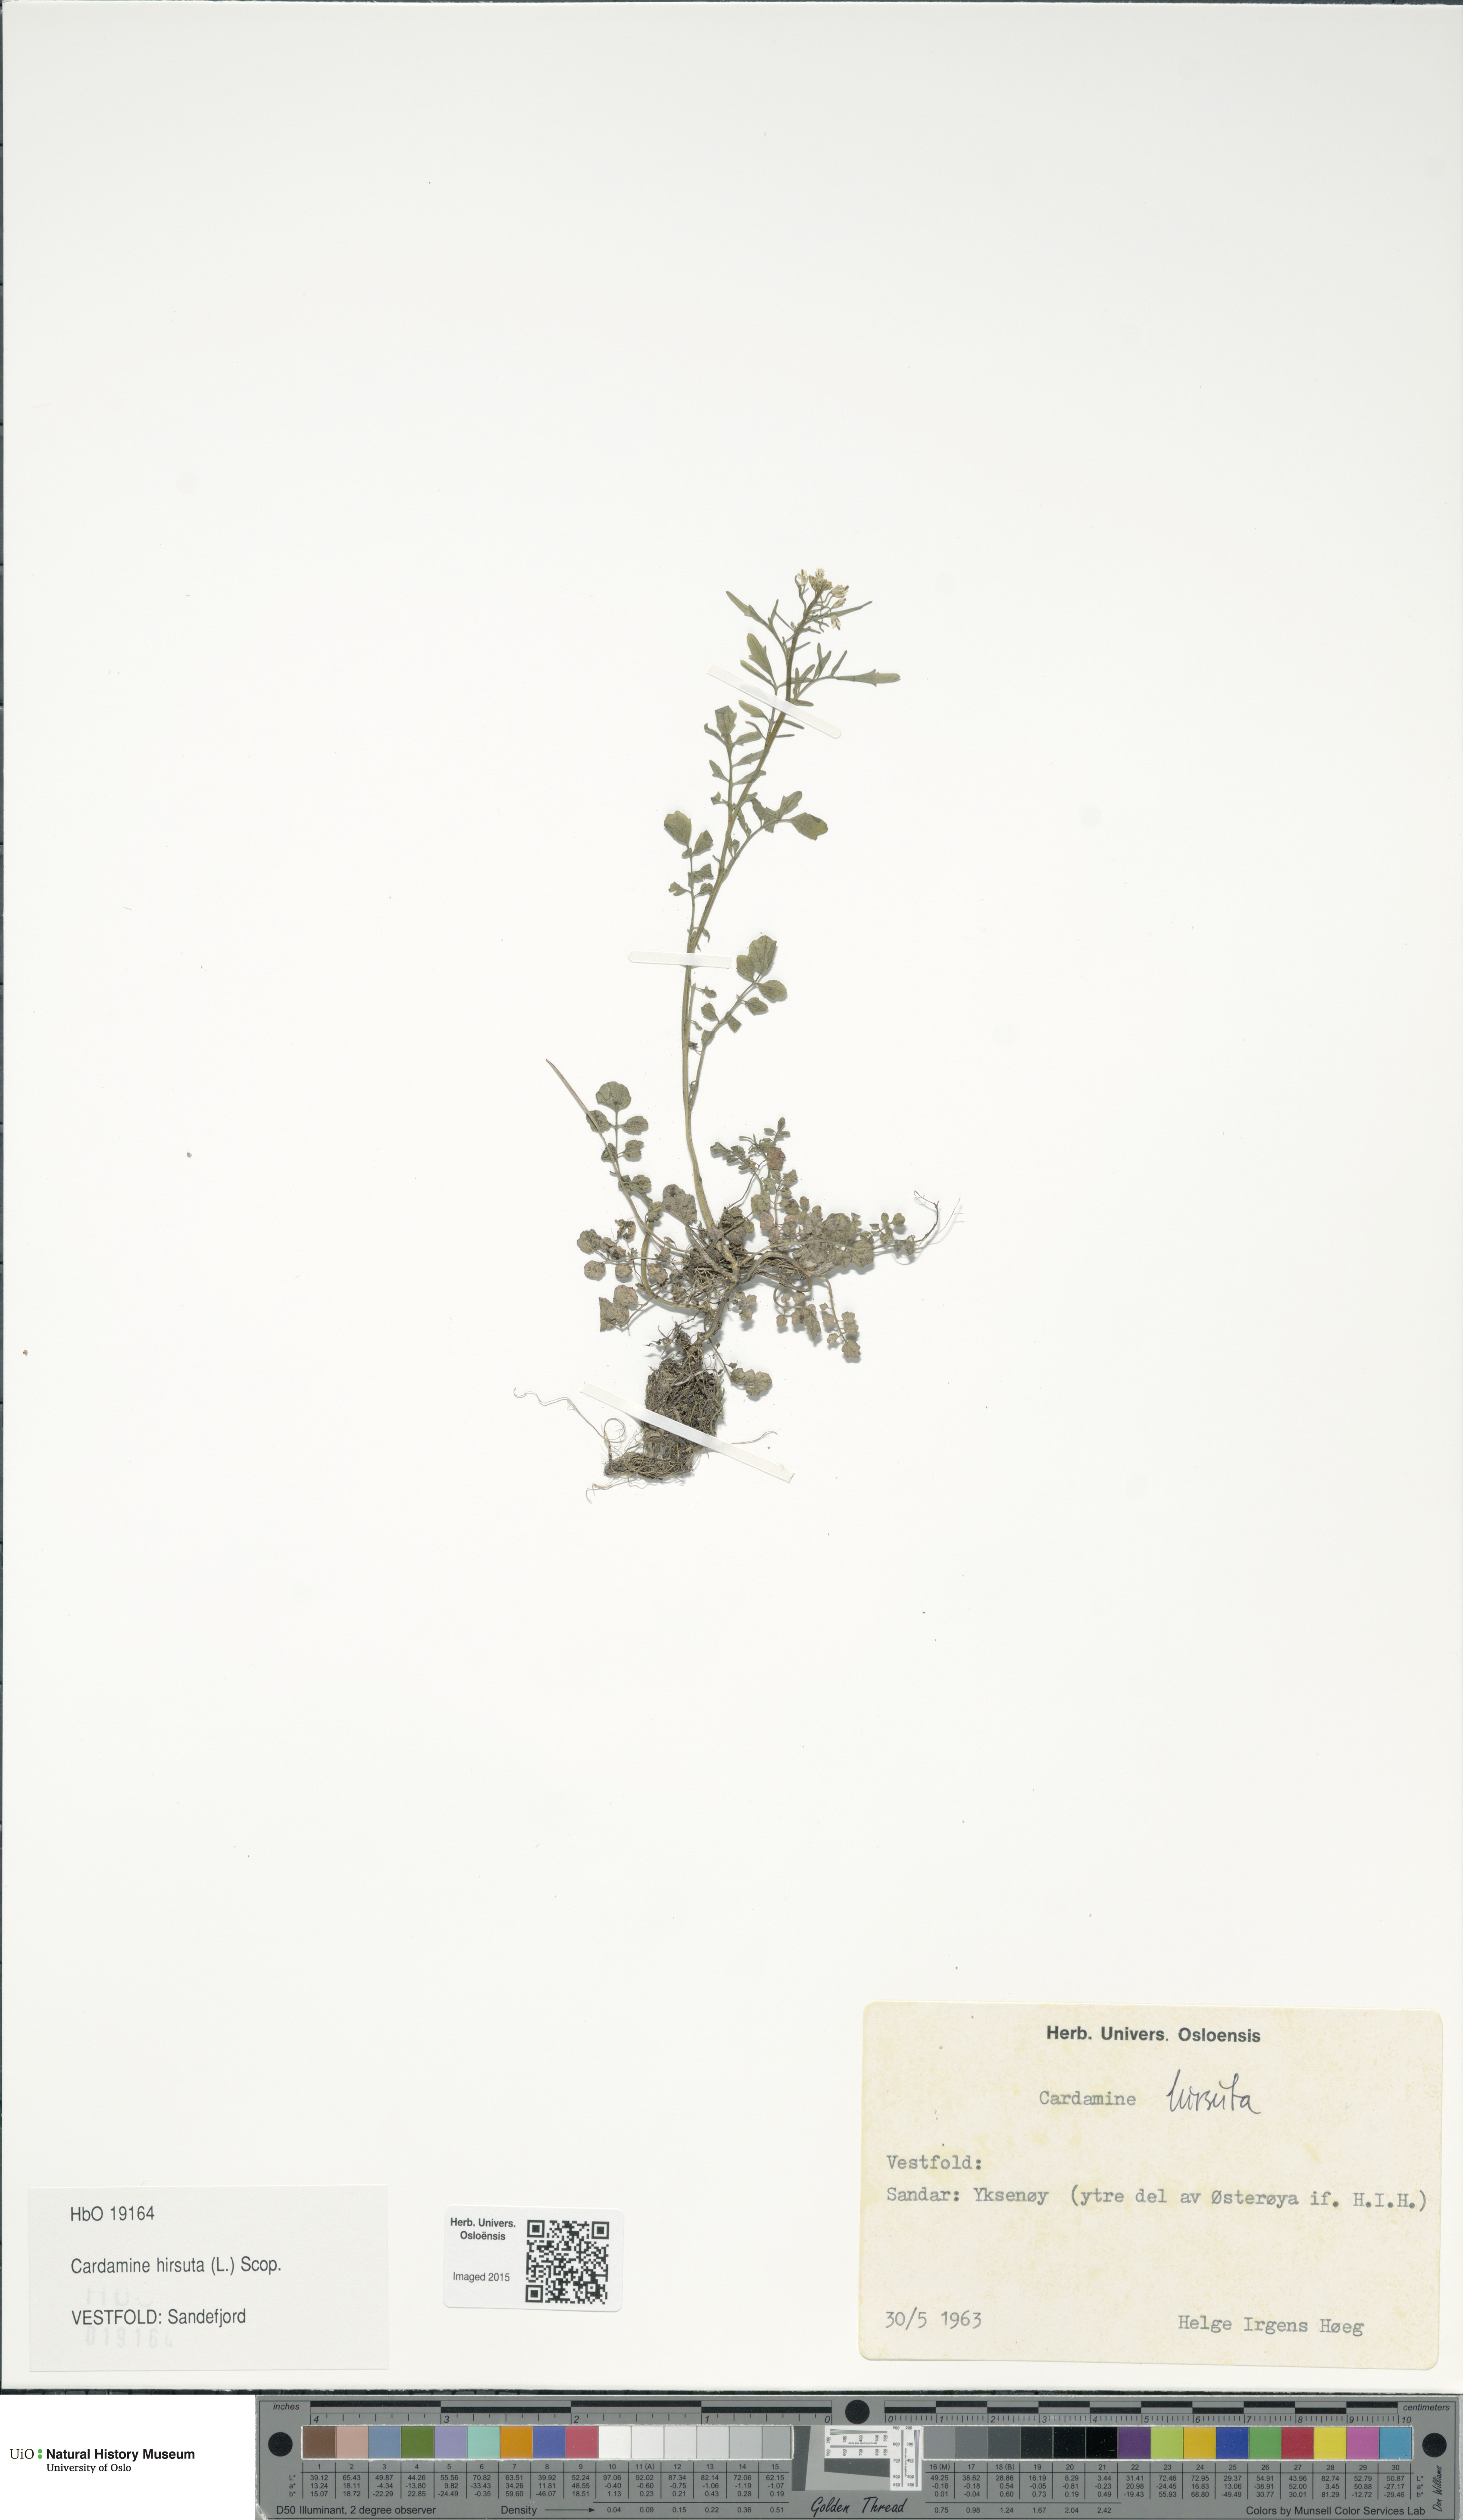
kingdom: Plantae
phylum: Tracheophyta
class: Magnoliopsida
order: Brassicales
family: Brassicaceae
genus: Cardamine
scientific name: Cardamine hirsuta
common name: Hairy bittercress
